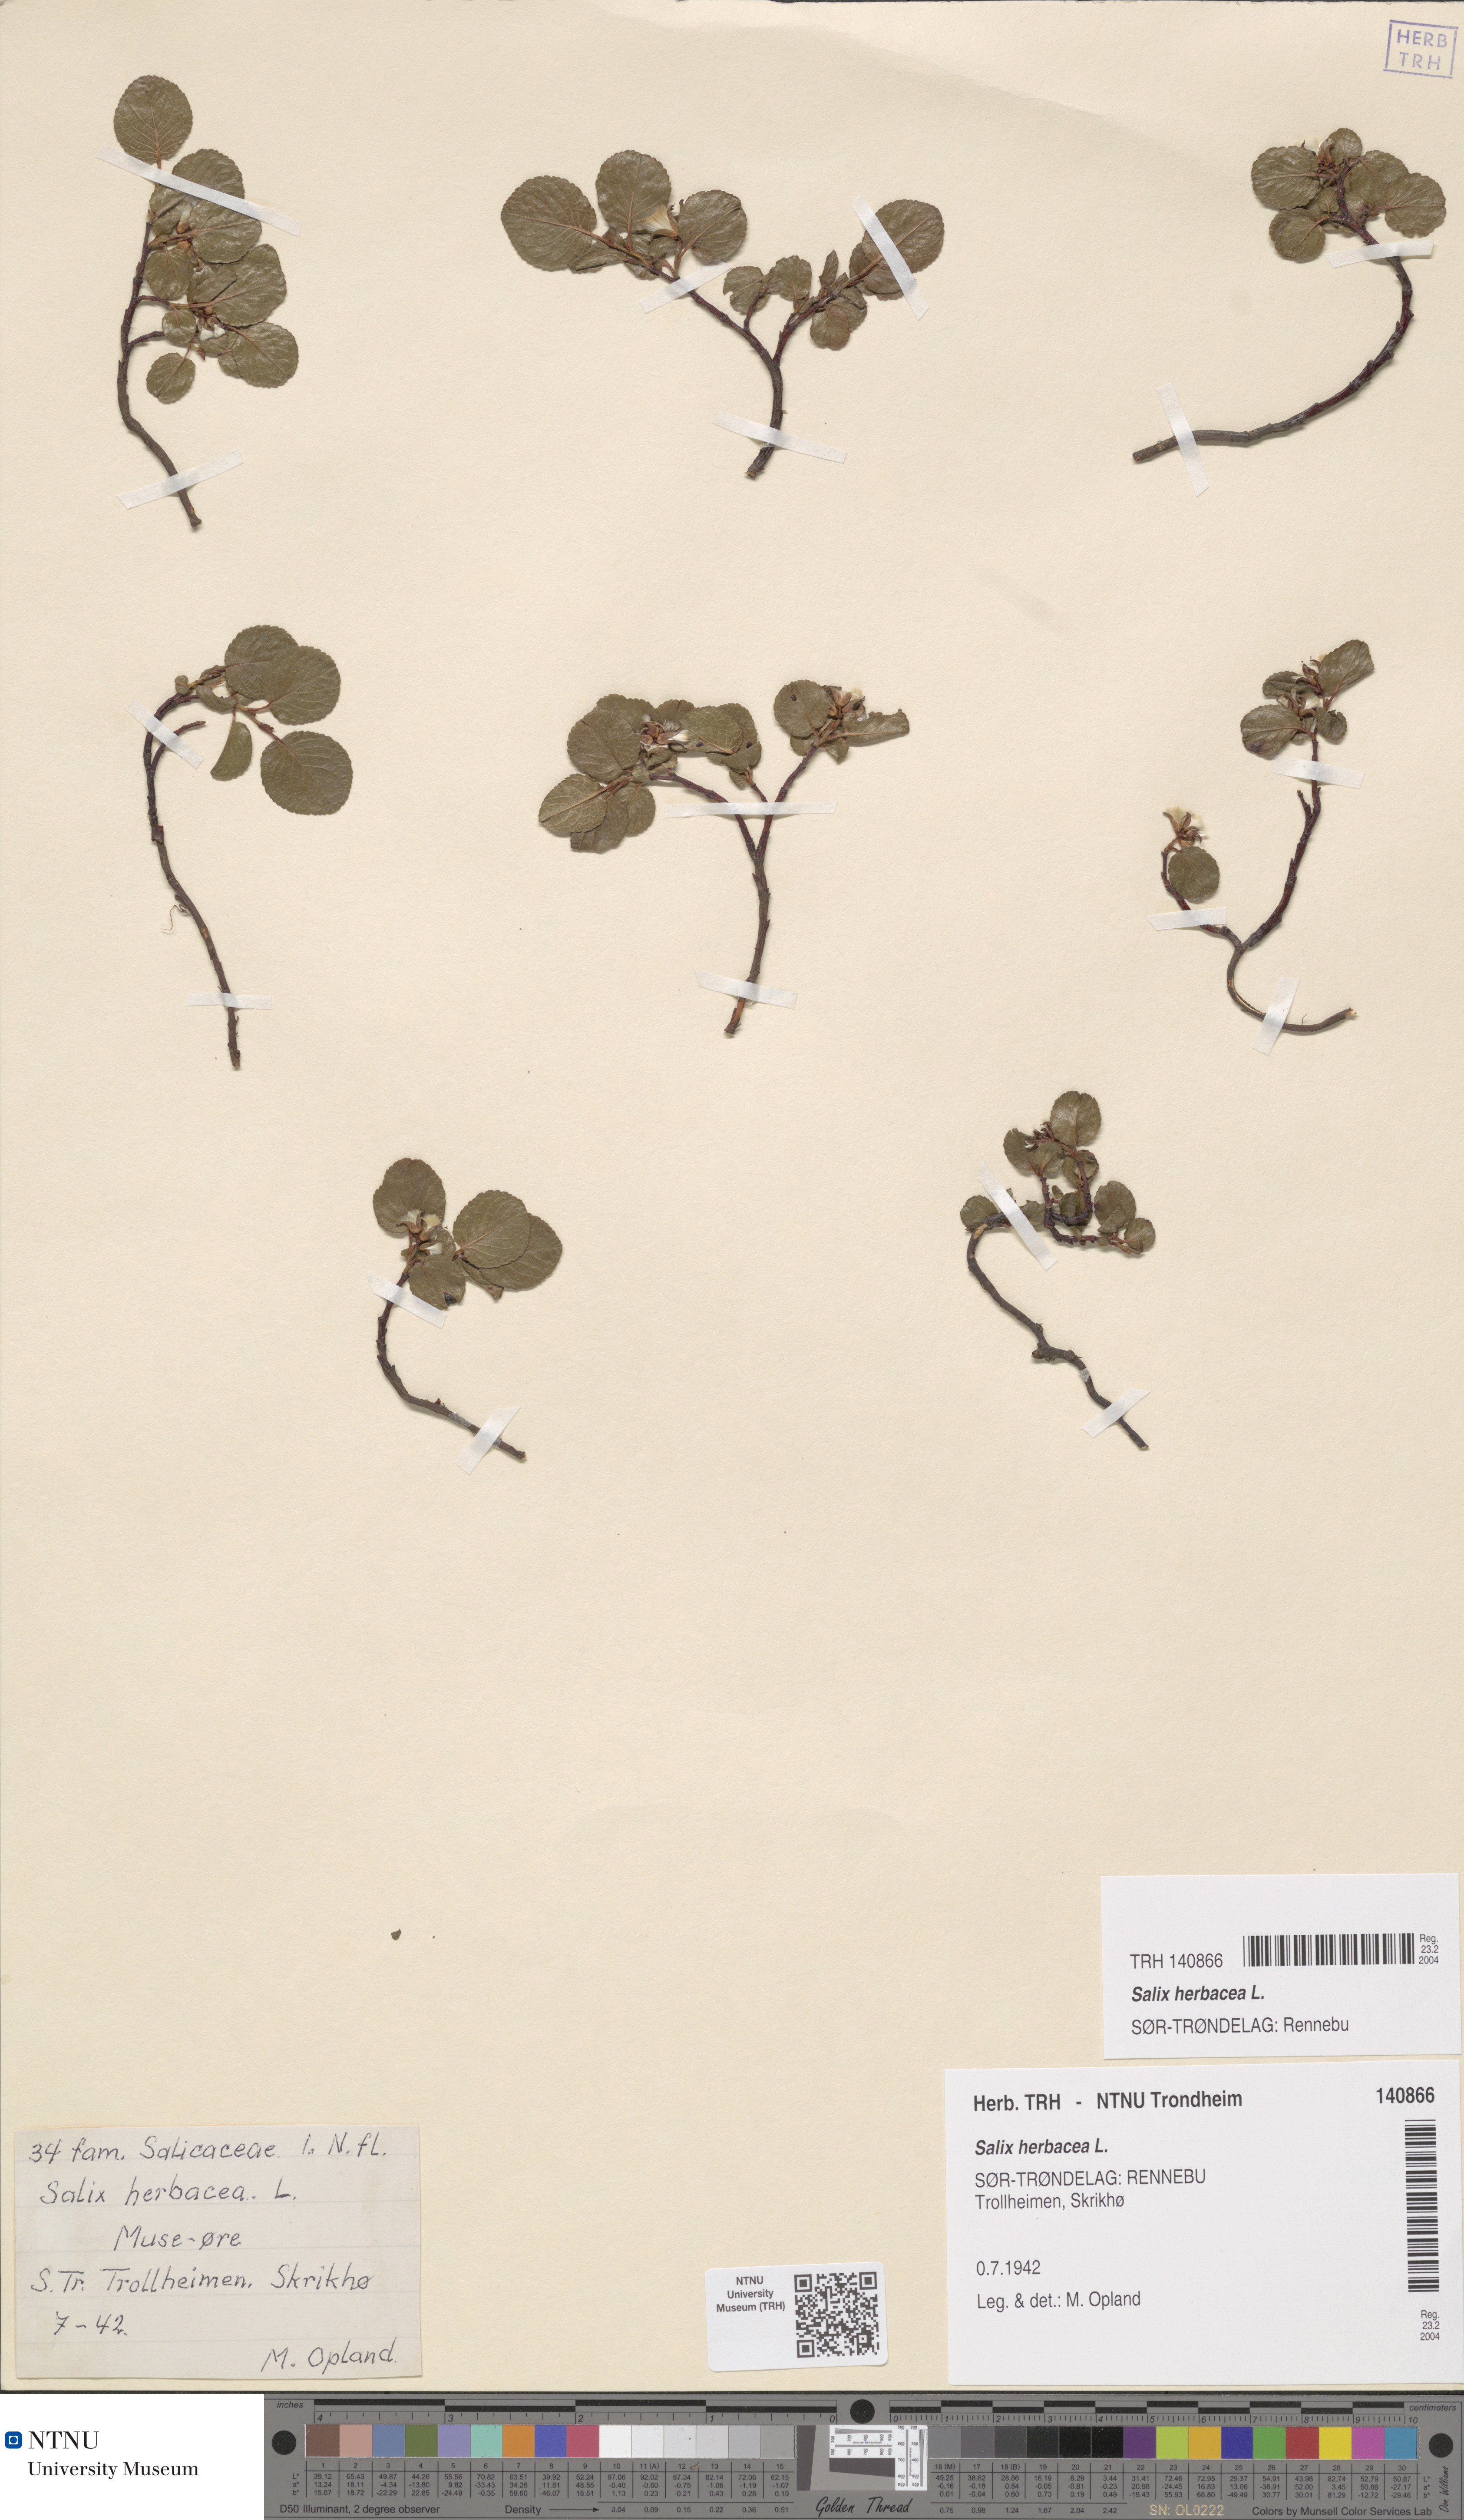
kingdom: Plantae
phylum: Tracheophyta
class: Magnoliopsida
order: Malpighiales
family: Salicaceae
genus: Salix
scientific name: Salix herbacea
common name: Dwarf willow
